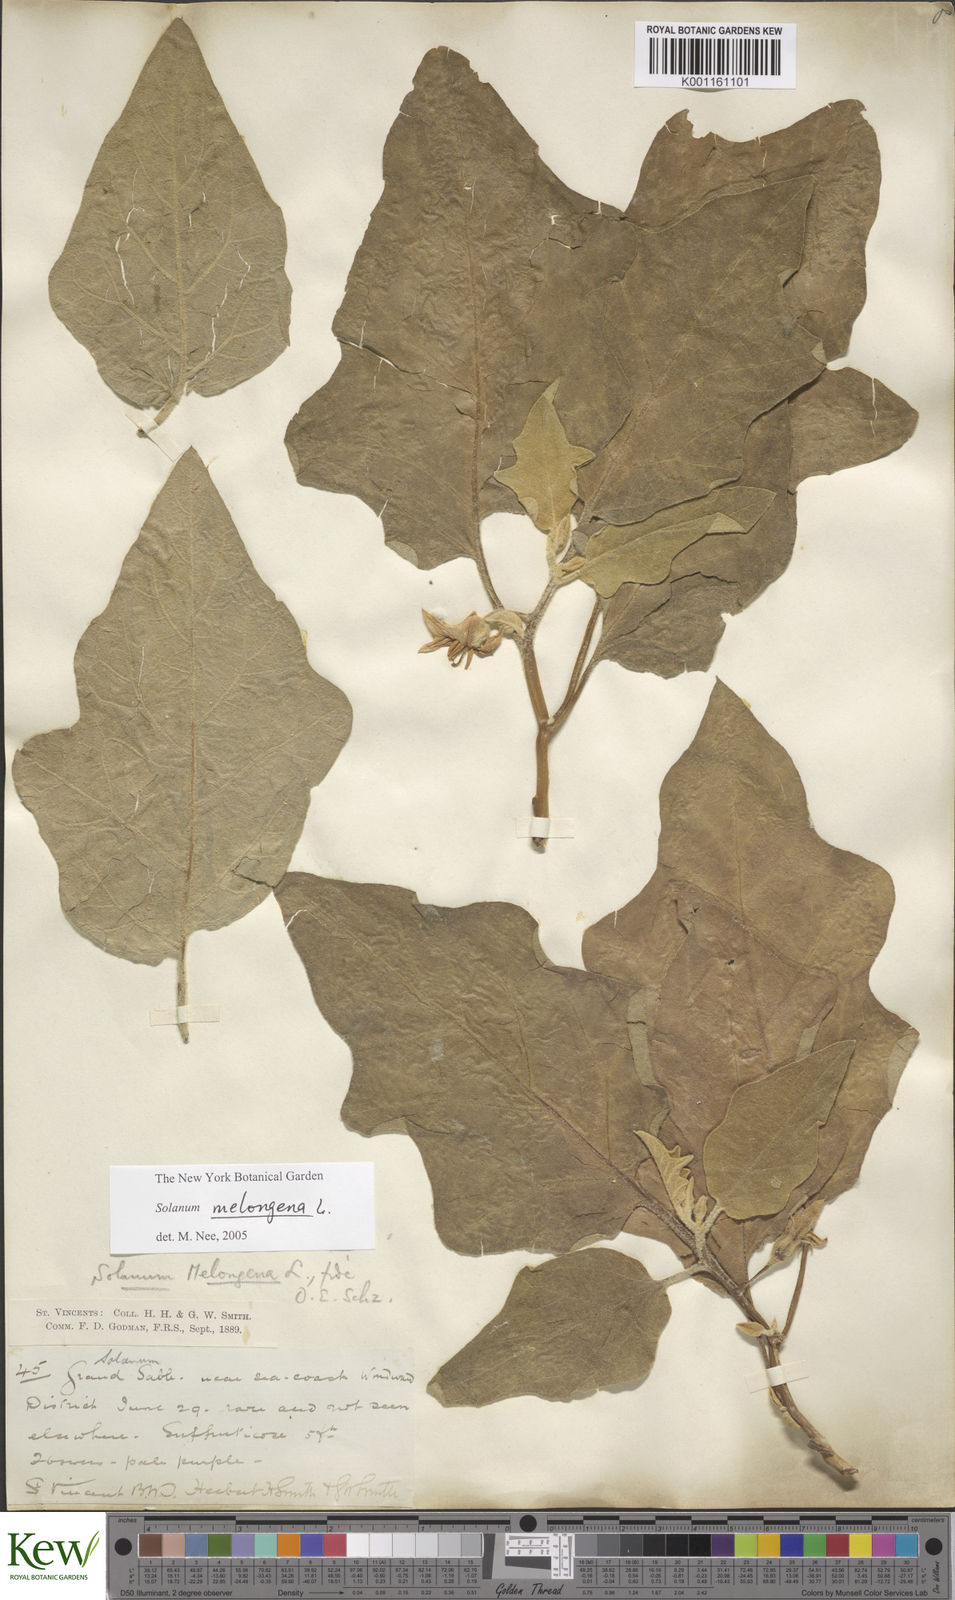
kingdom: Plantae
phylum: Tracheophyta
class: Magnoliopsida
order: Solanales
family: Solanaceae
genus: Solanum
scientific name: Solanum melongena
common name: Eggplant
